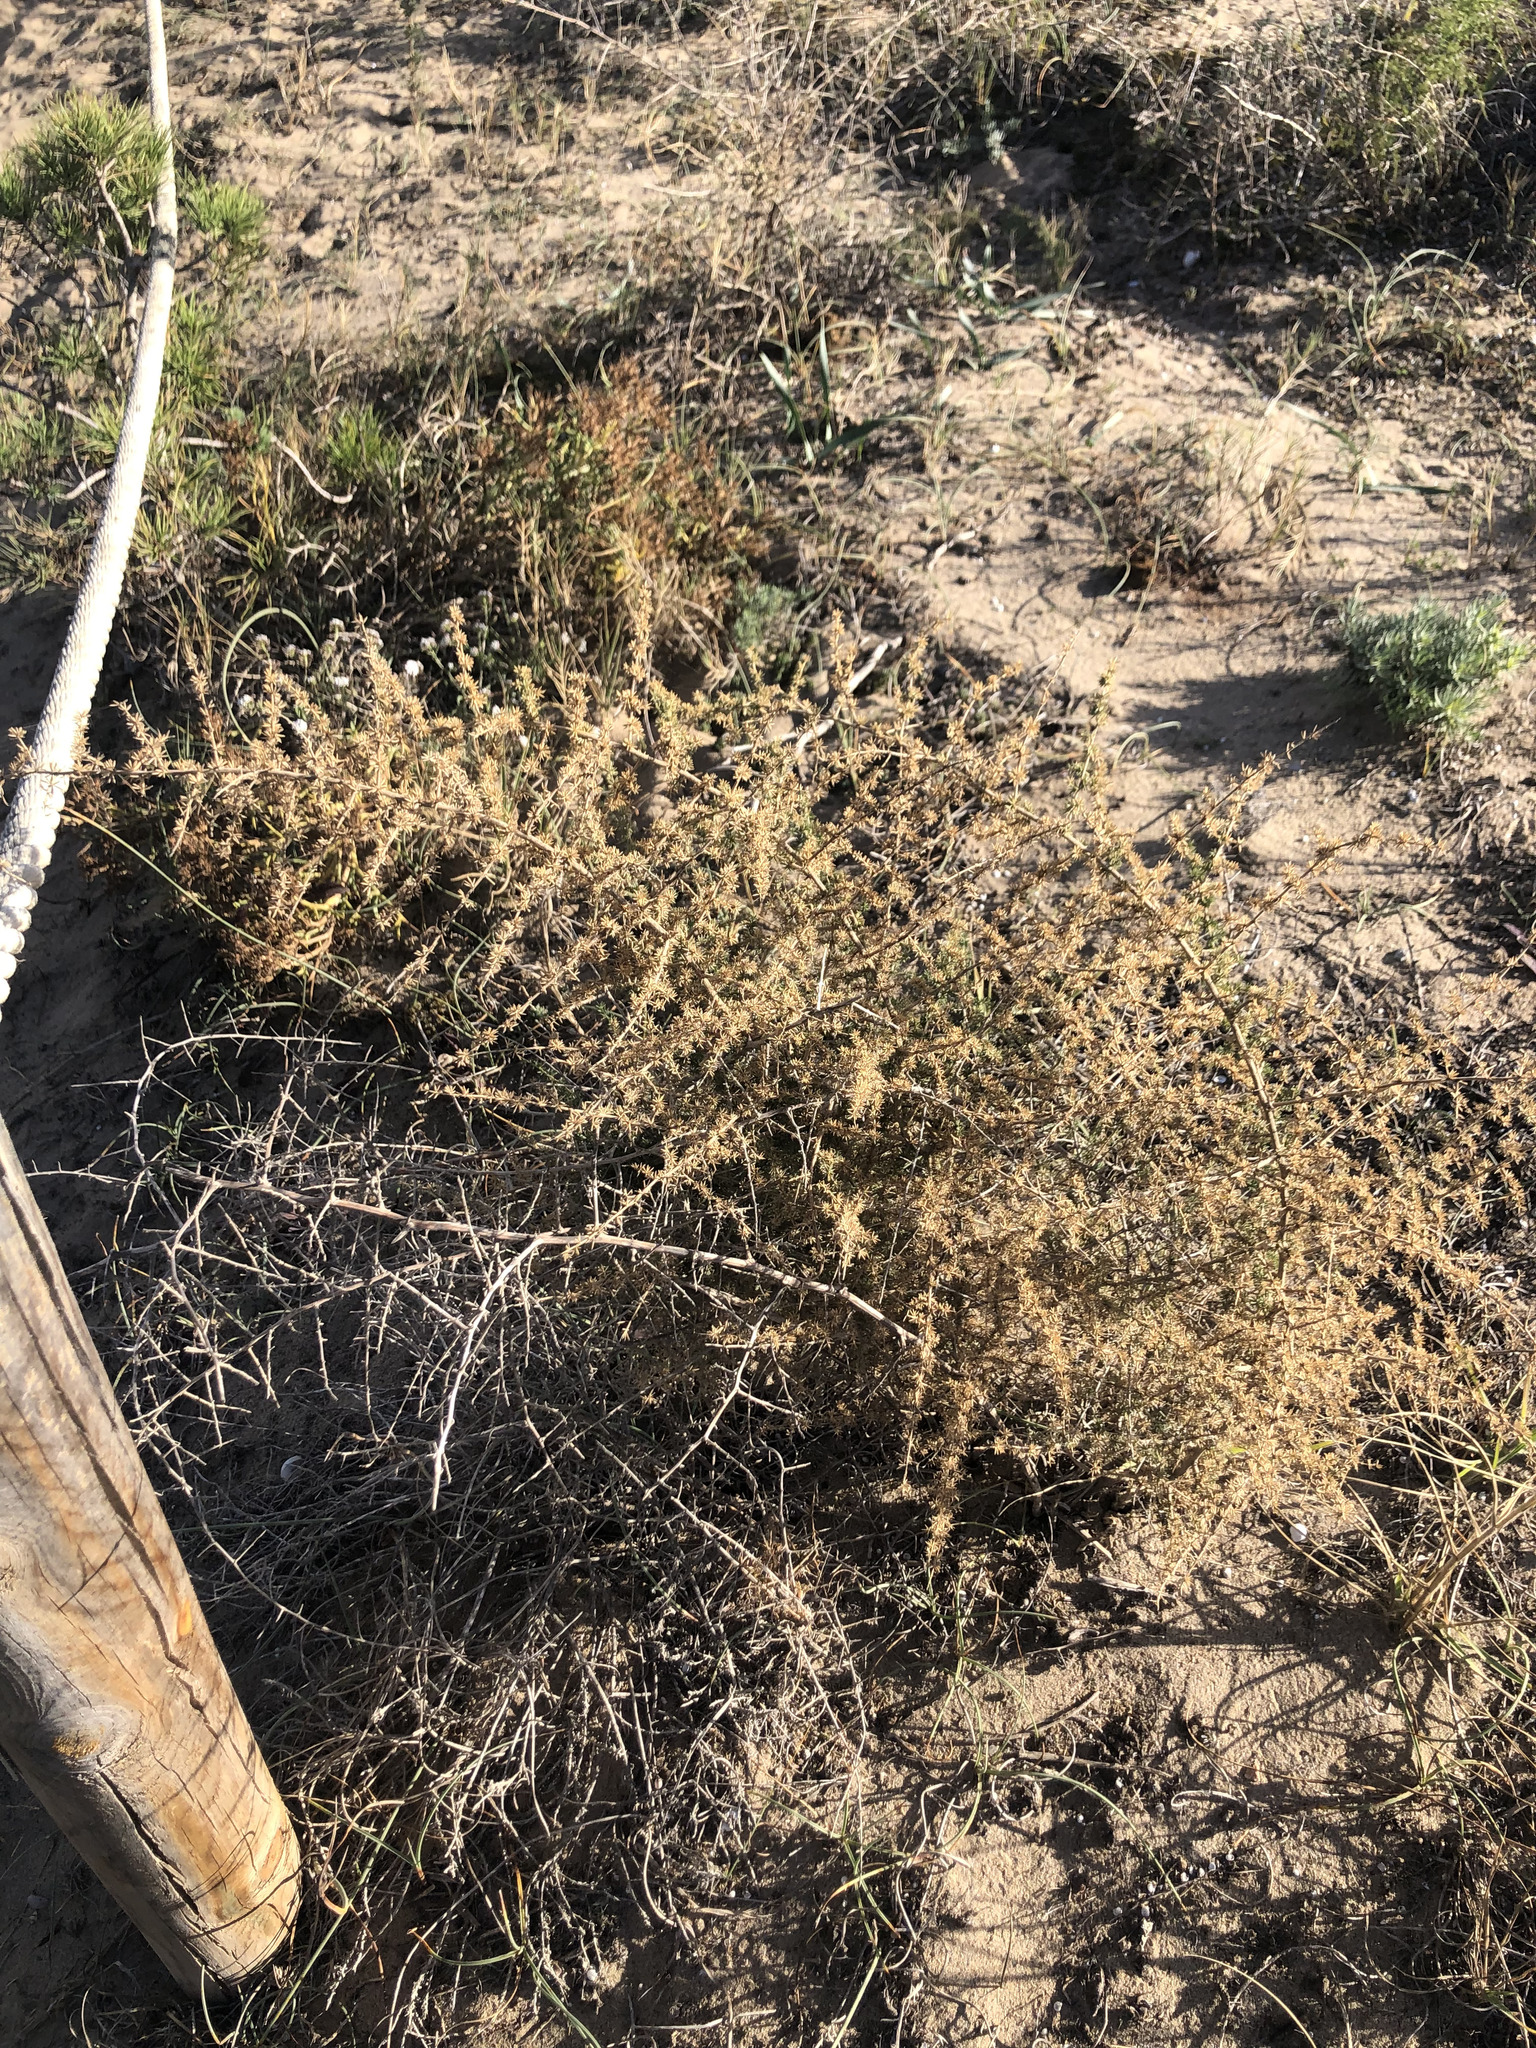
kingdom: Plantae
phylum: Tracheophyta
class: Liliopsida
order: Asparagales
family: Asparagaceae
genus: Asparagus
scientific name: Asparagus acutifolius
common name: Wild asparagus
